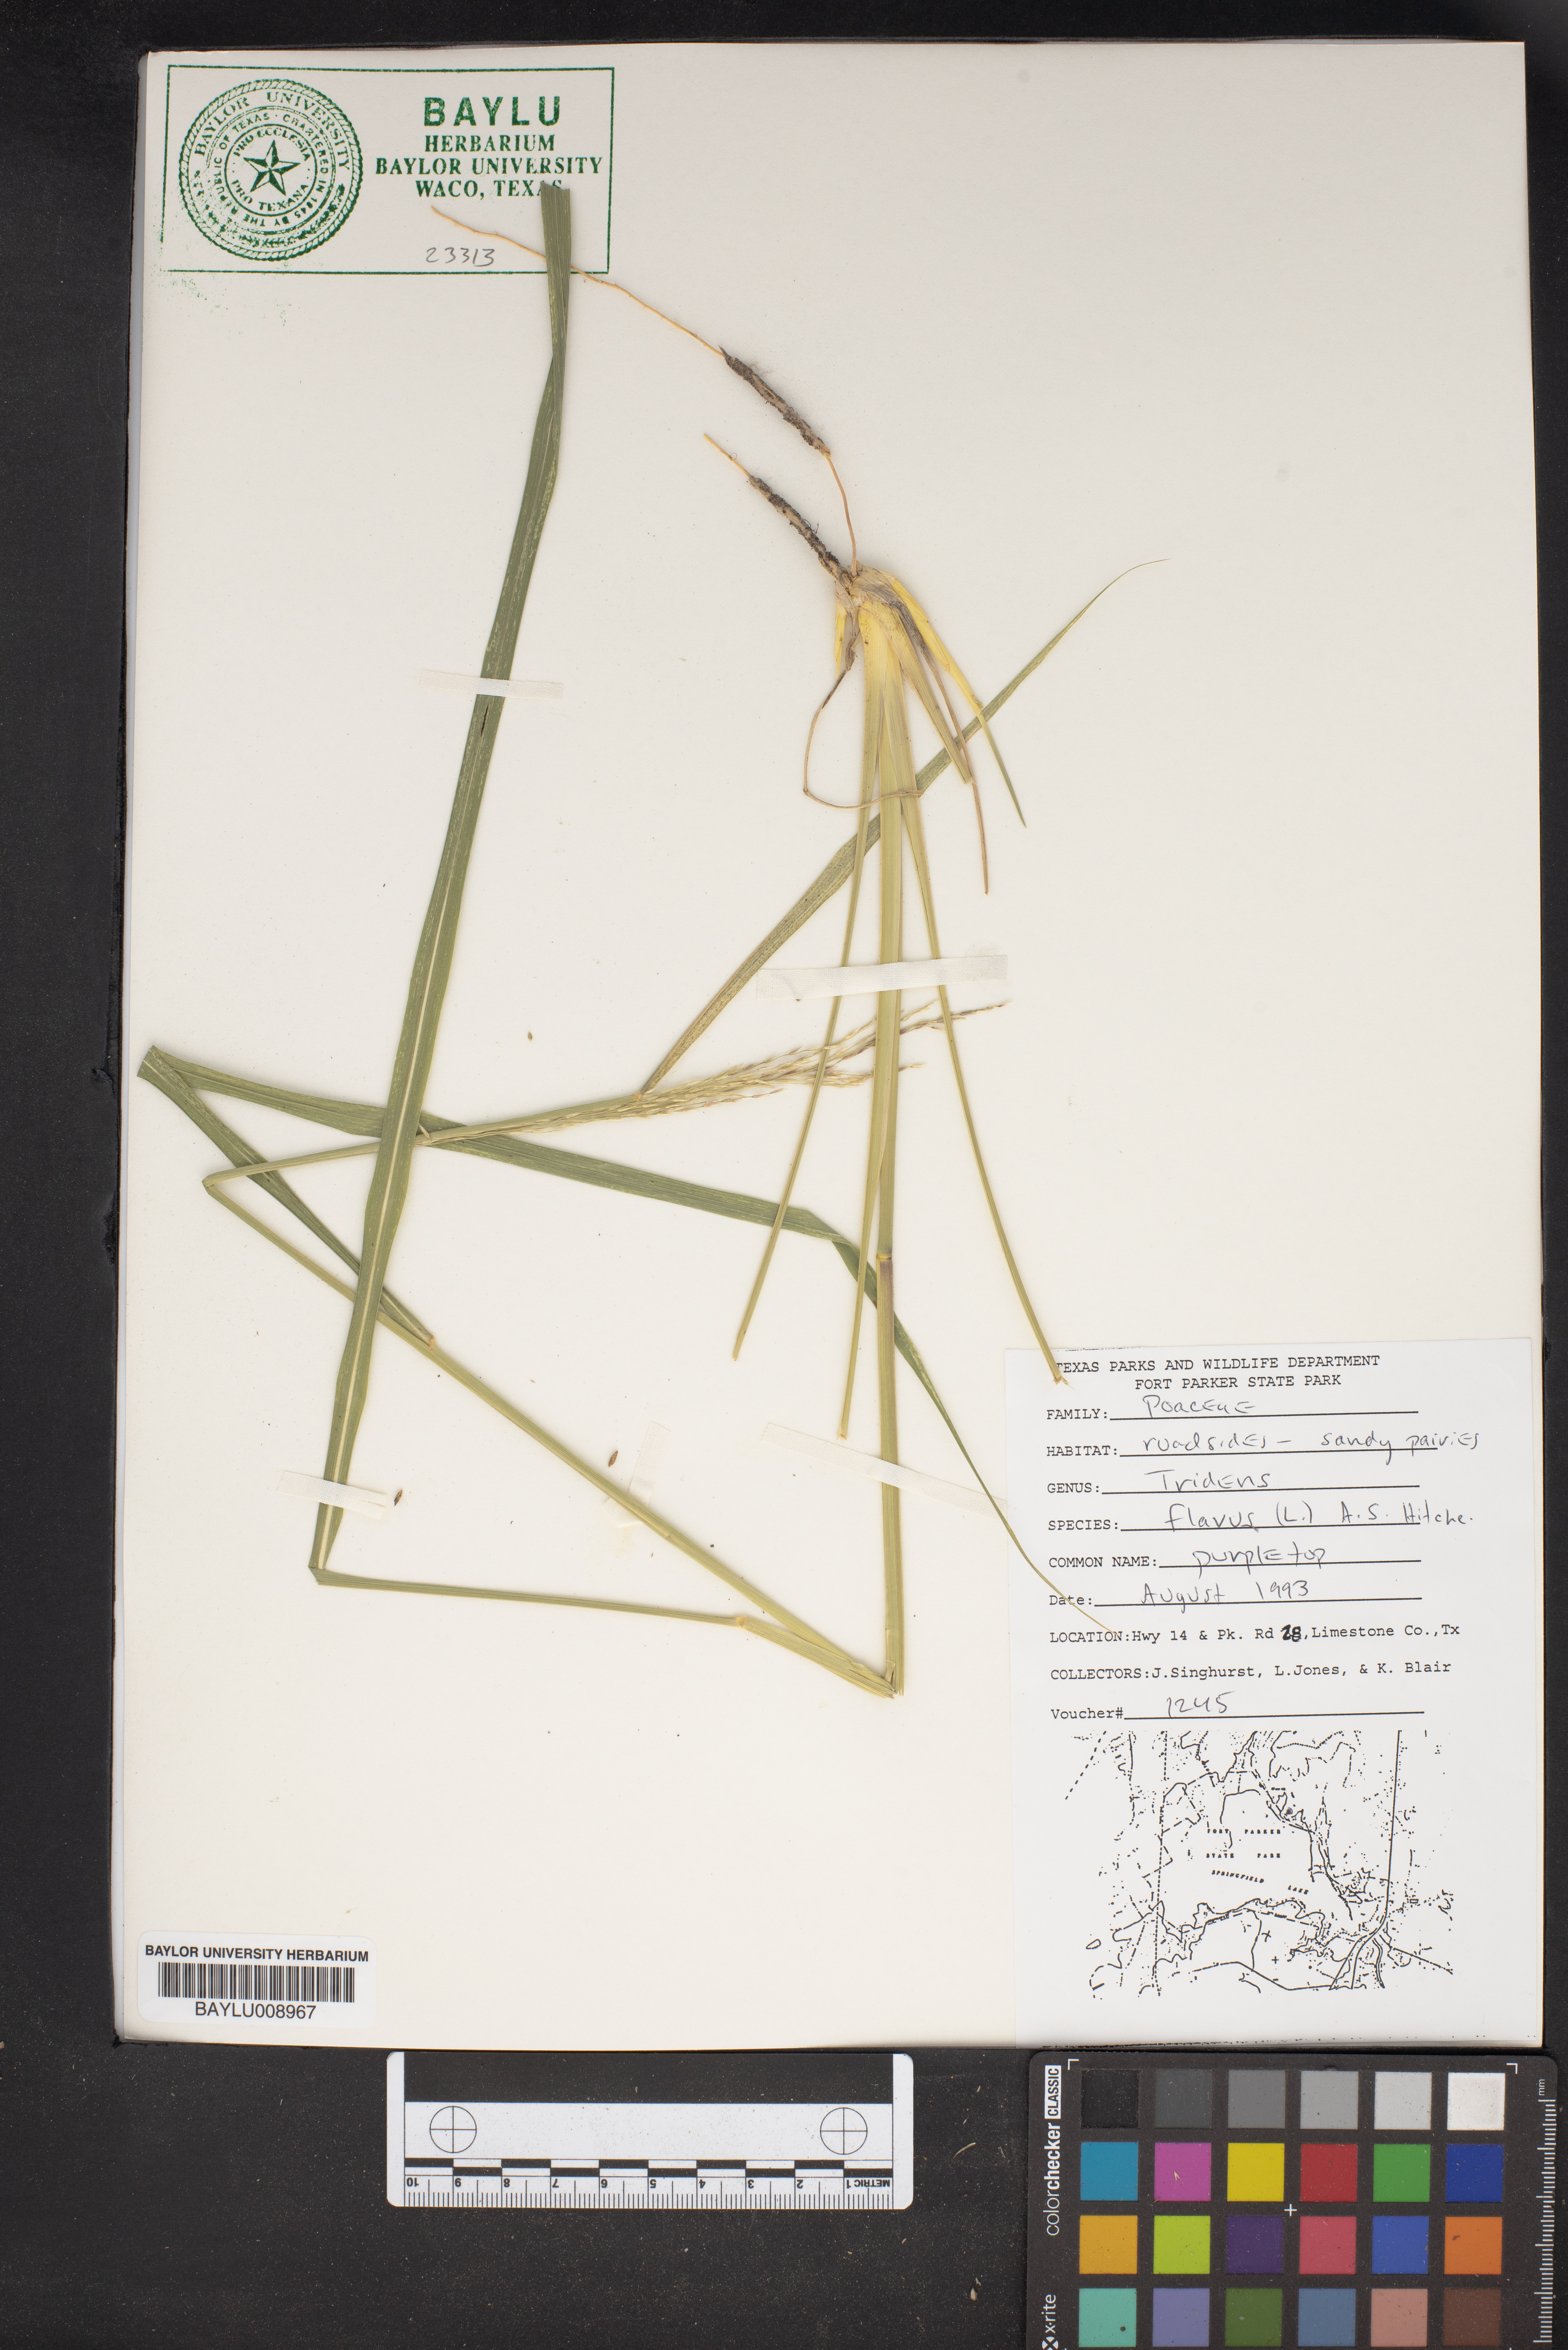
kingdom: Plantae
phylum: Tracheophyta
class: Liliopsida
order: Poales
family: Poaceae
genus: Tridens
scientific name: Tridens flavus
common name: Purpletop
